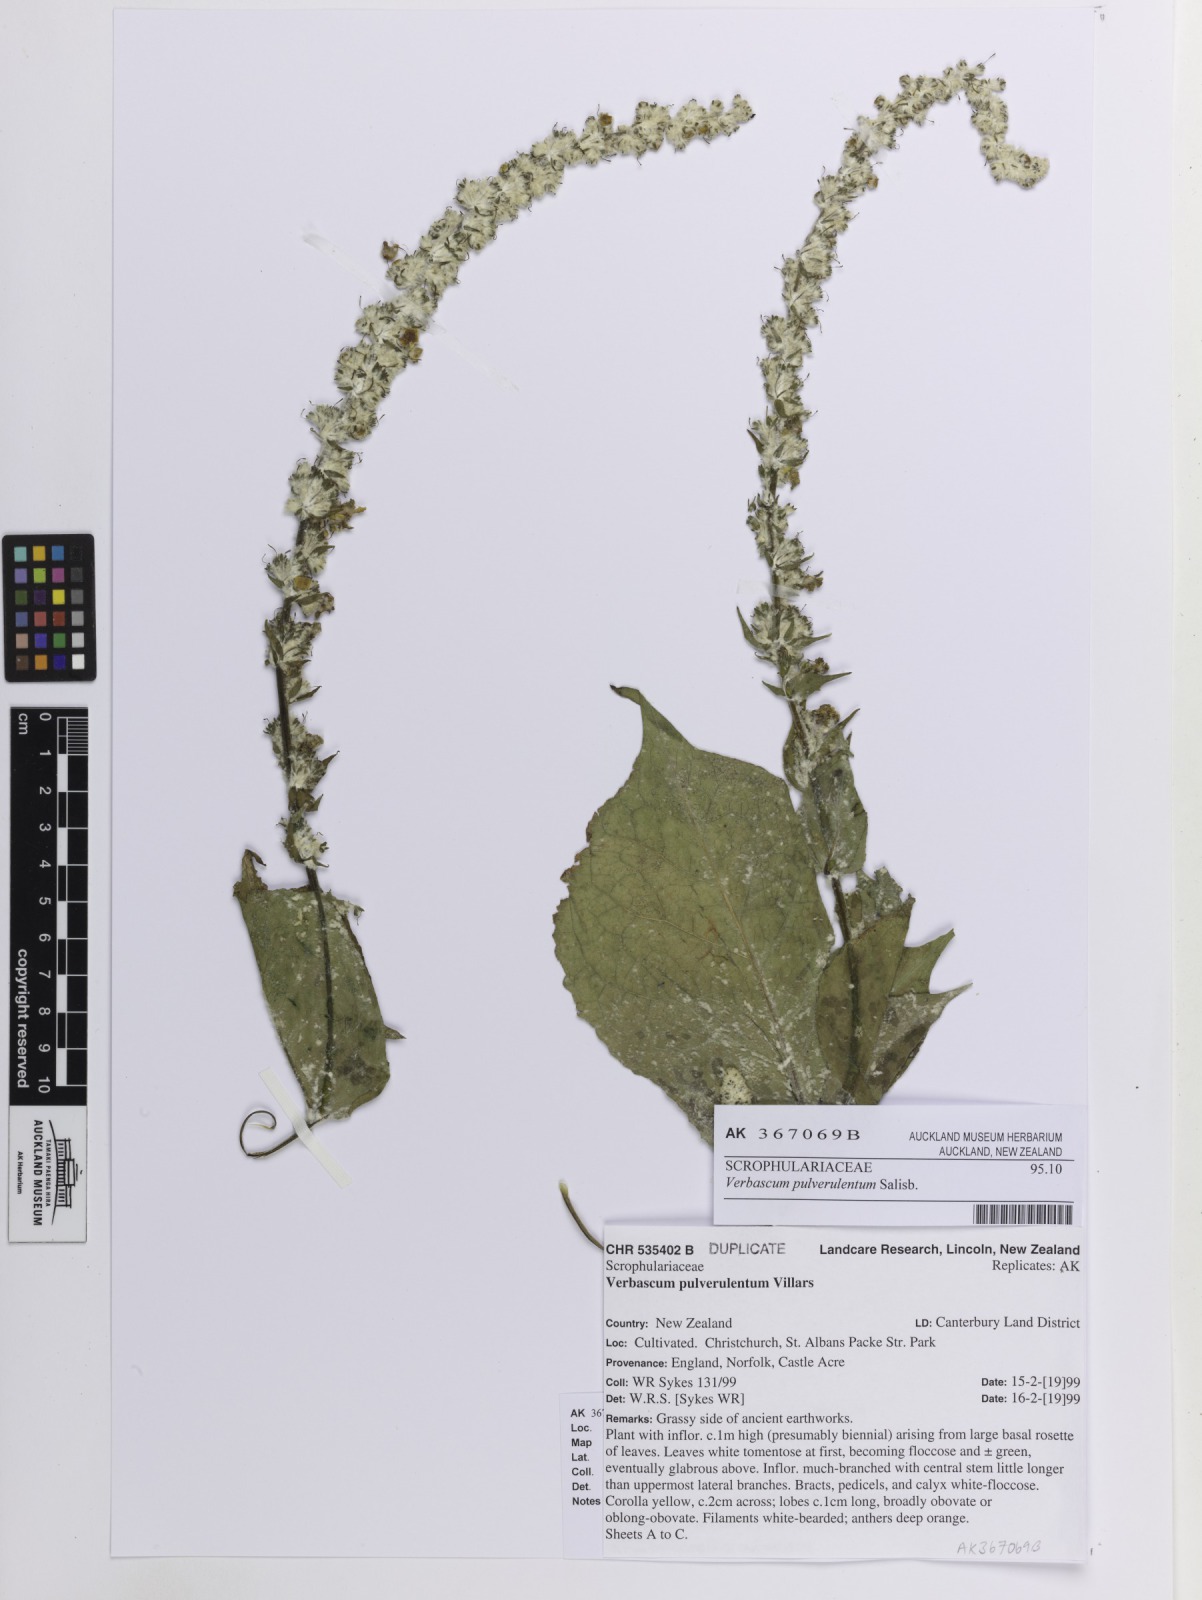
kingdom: Plantae
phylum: Tracheophyta
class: Magnoliopsida
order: Lamiales
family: Scrophulariaceae
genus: Verbascum
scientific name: Verbascum lychnitis
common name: White mullein
